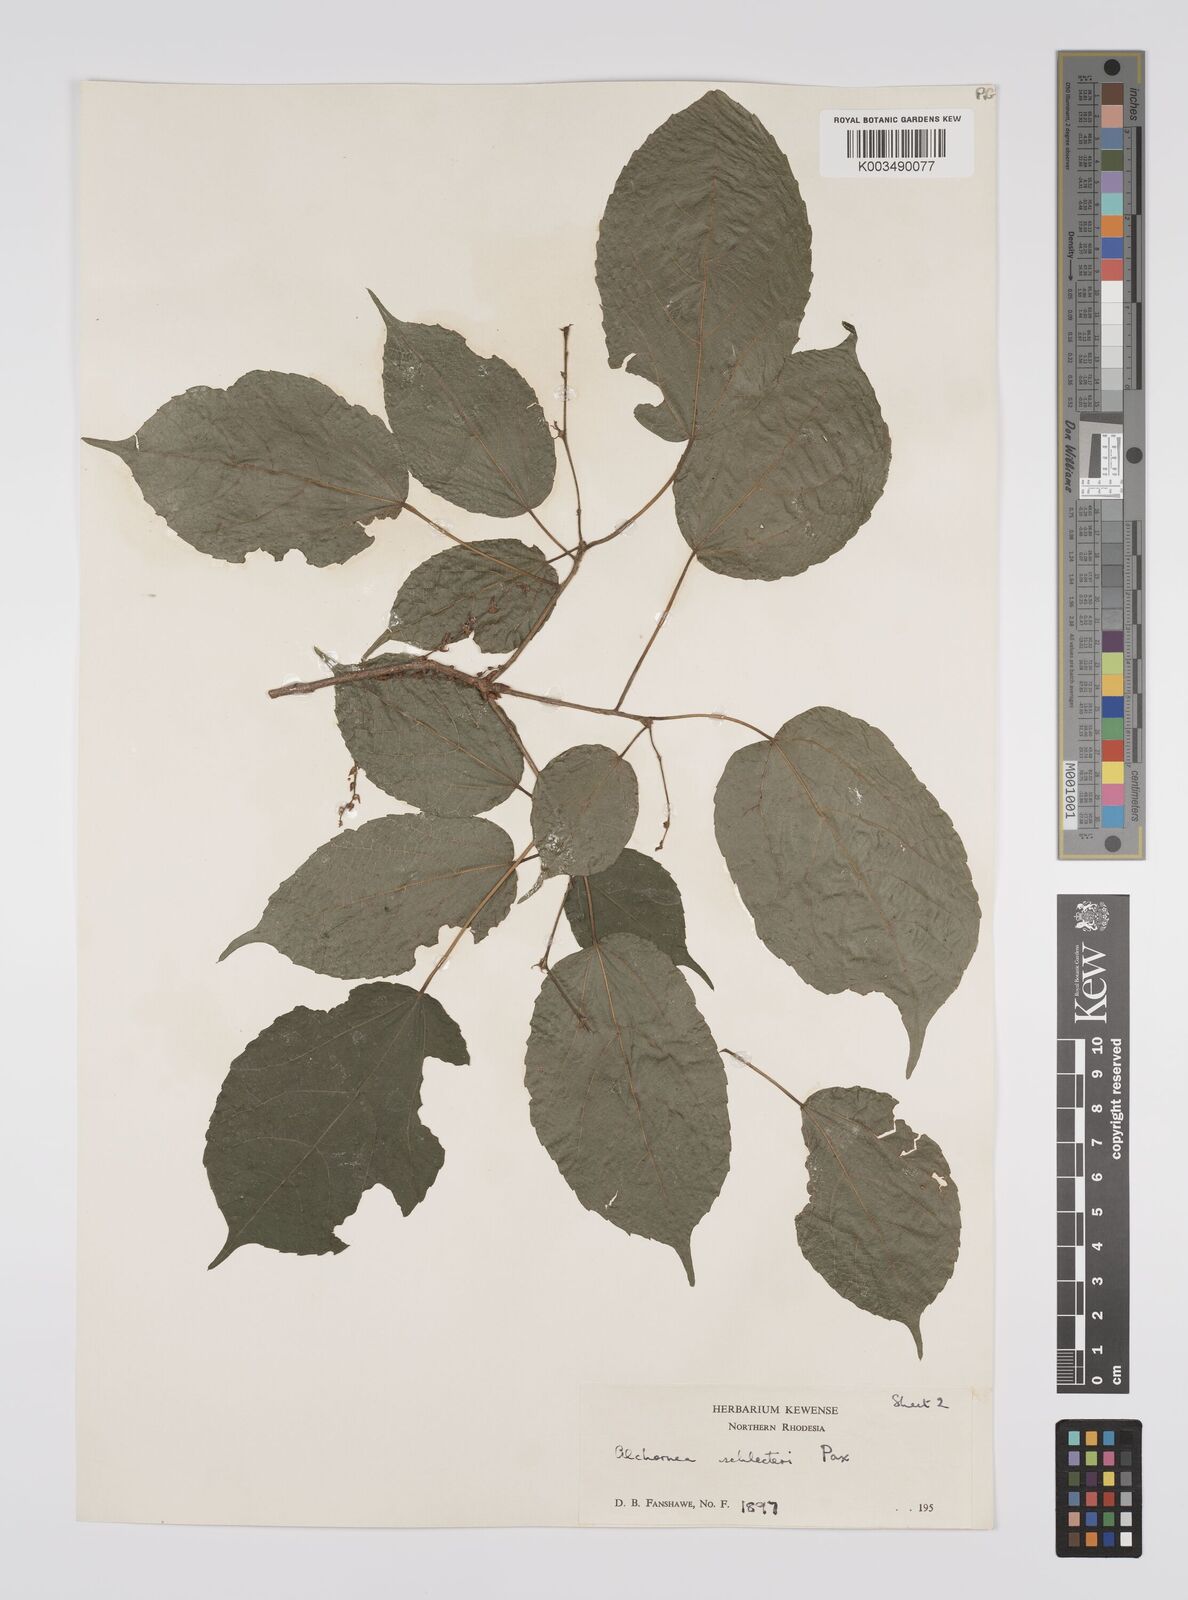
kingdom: Plantae
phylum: Tracheophyta
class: Magnoliopsida
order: Malpighiales
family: Euphorbiaceae
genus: Alchornea
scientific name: Alchornea laxiflora
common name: Lowveld bead-string
